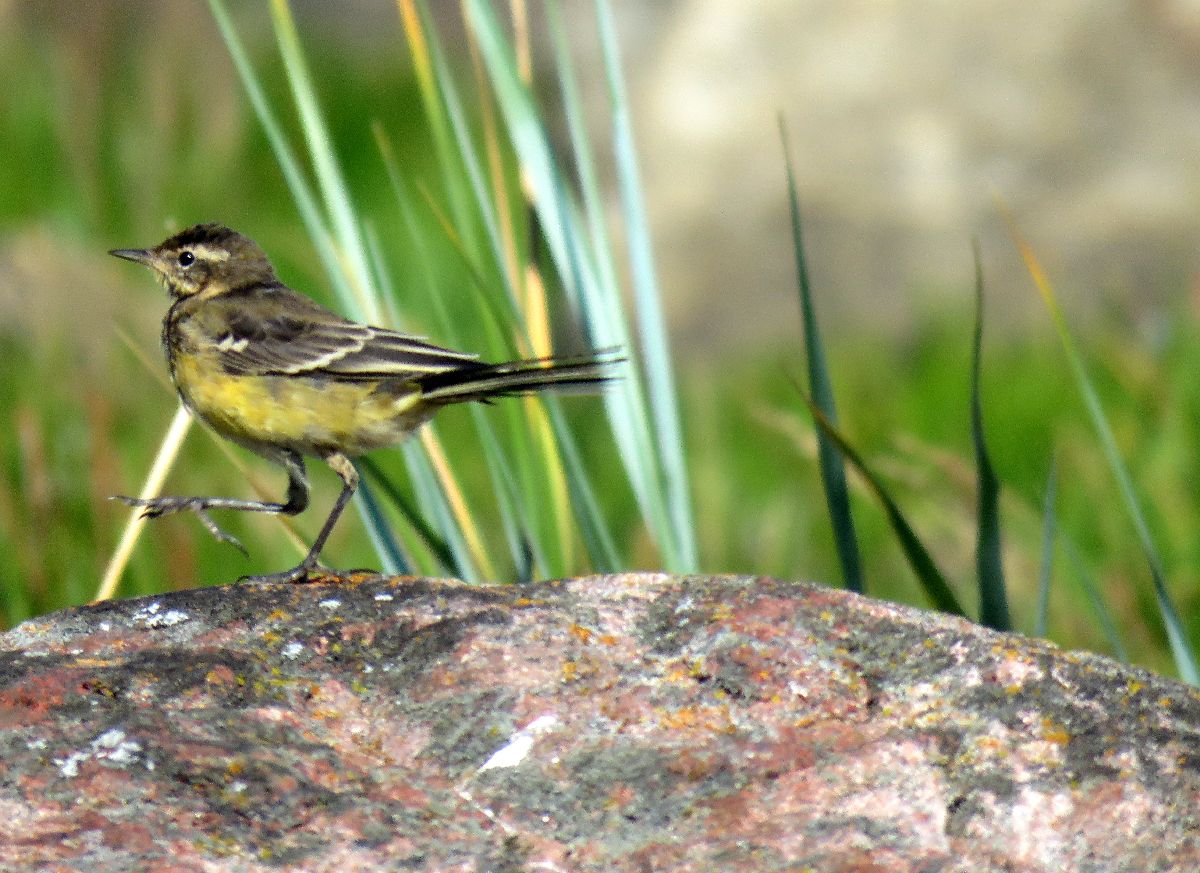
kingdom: Animalia
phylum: Chordata
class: Aves
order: Passeriformes
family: Motacillidae
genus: Motacilla
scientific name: Motacilla flava
